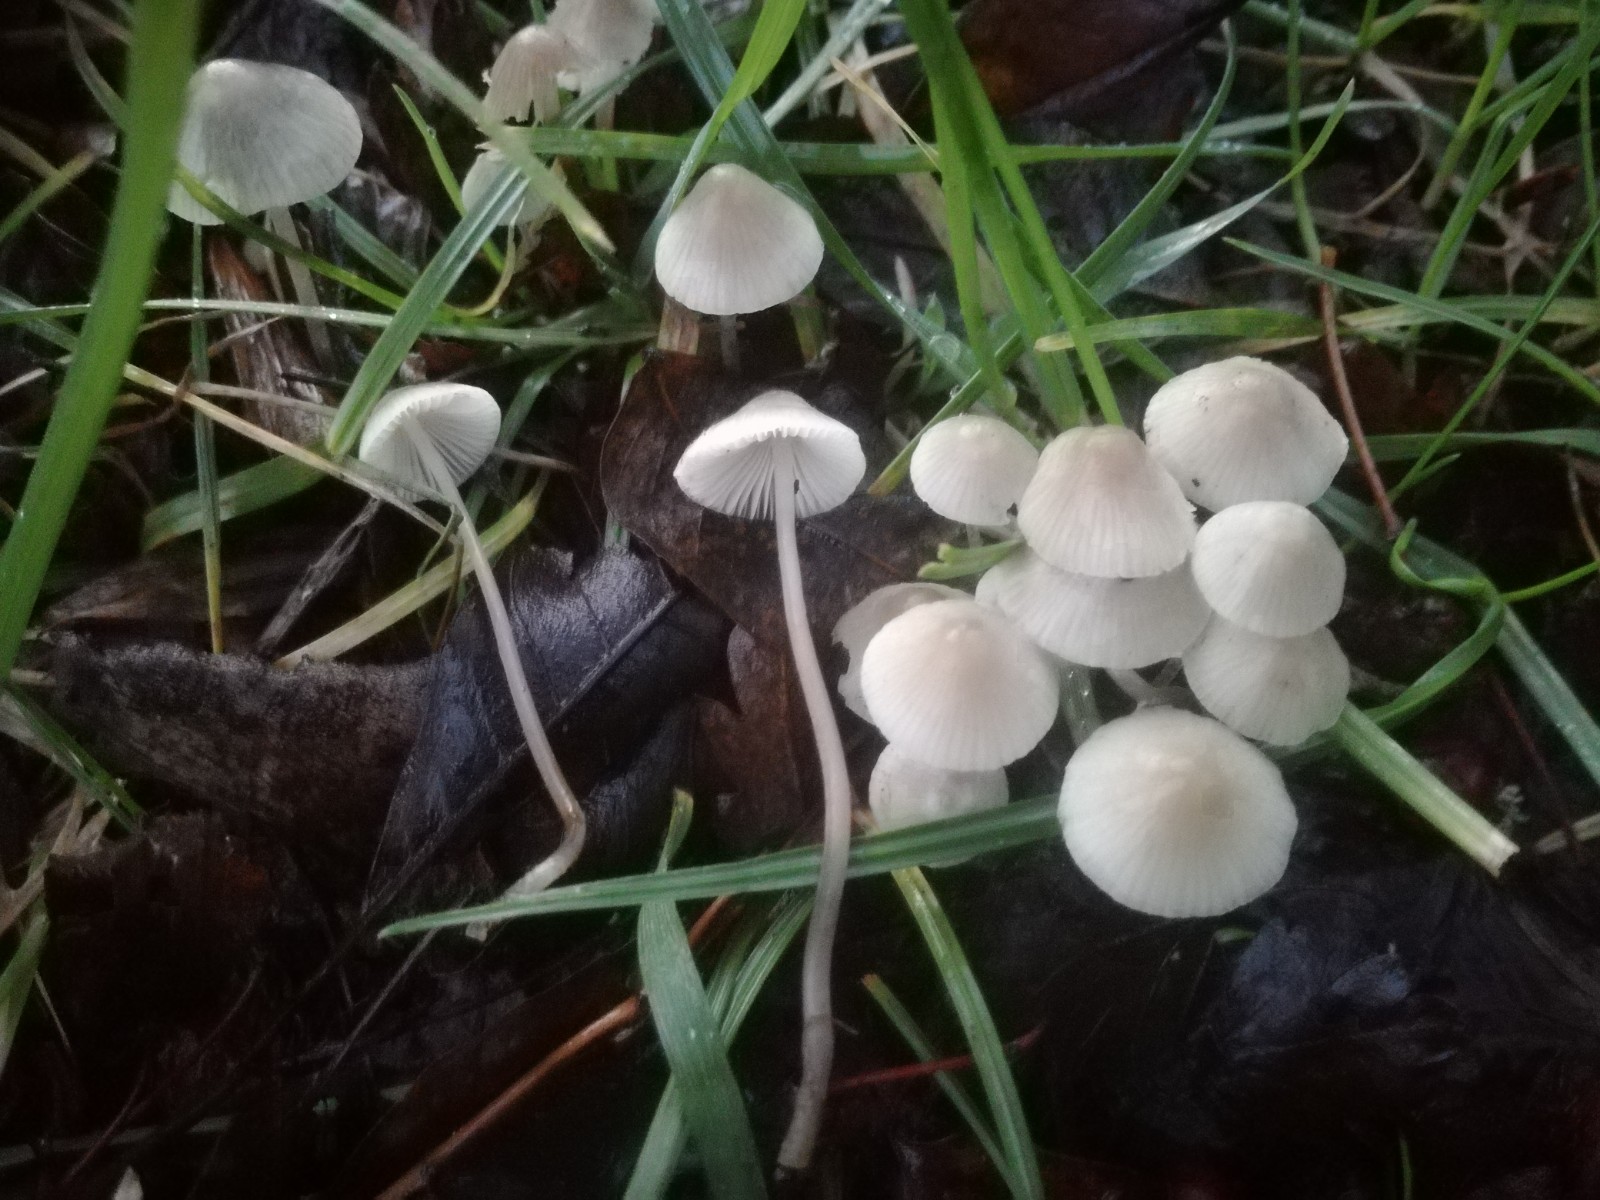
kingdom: Fungi
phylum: Basidiomycota
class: Agaricomycetes
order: Agaricales
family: Mycenaceae
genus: Mycena
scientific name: Mycena arcangeliana
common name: oliven-huesvamp
